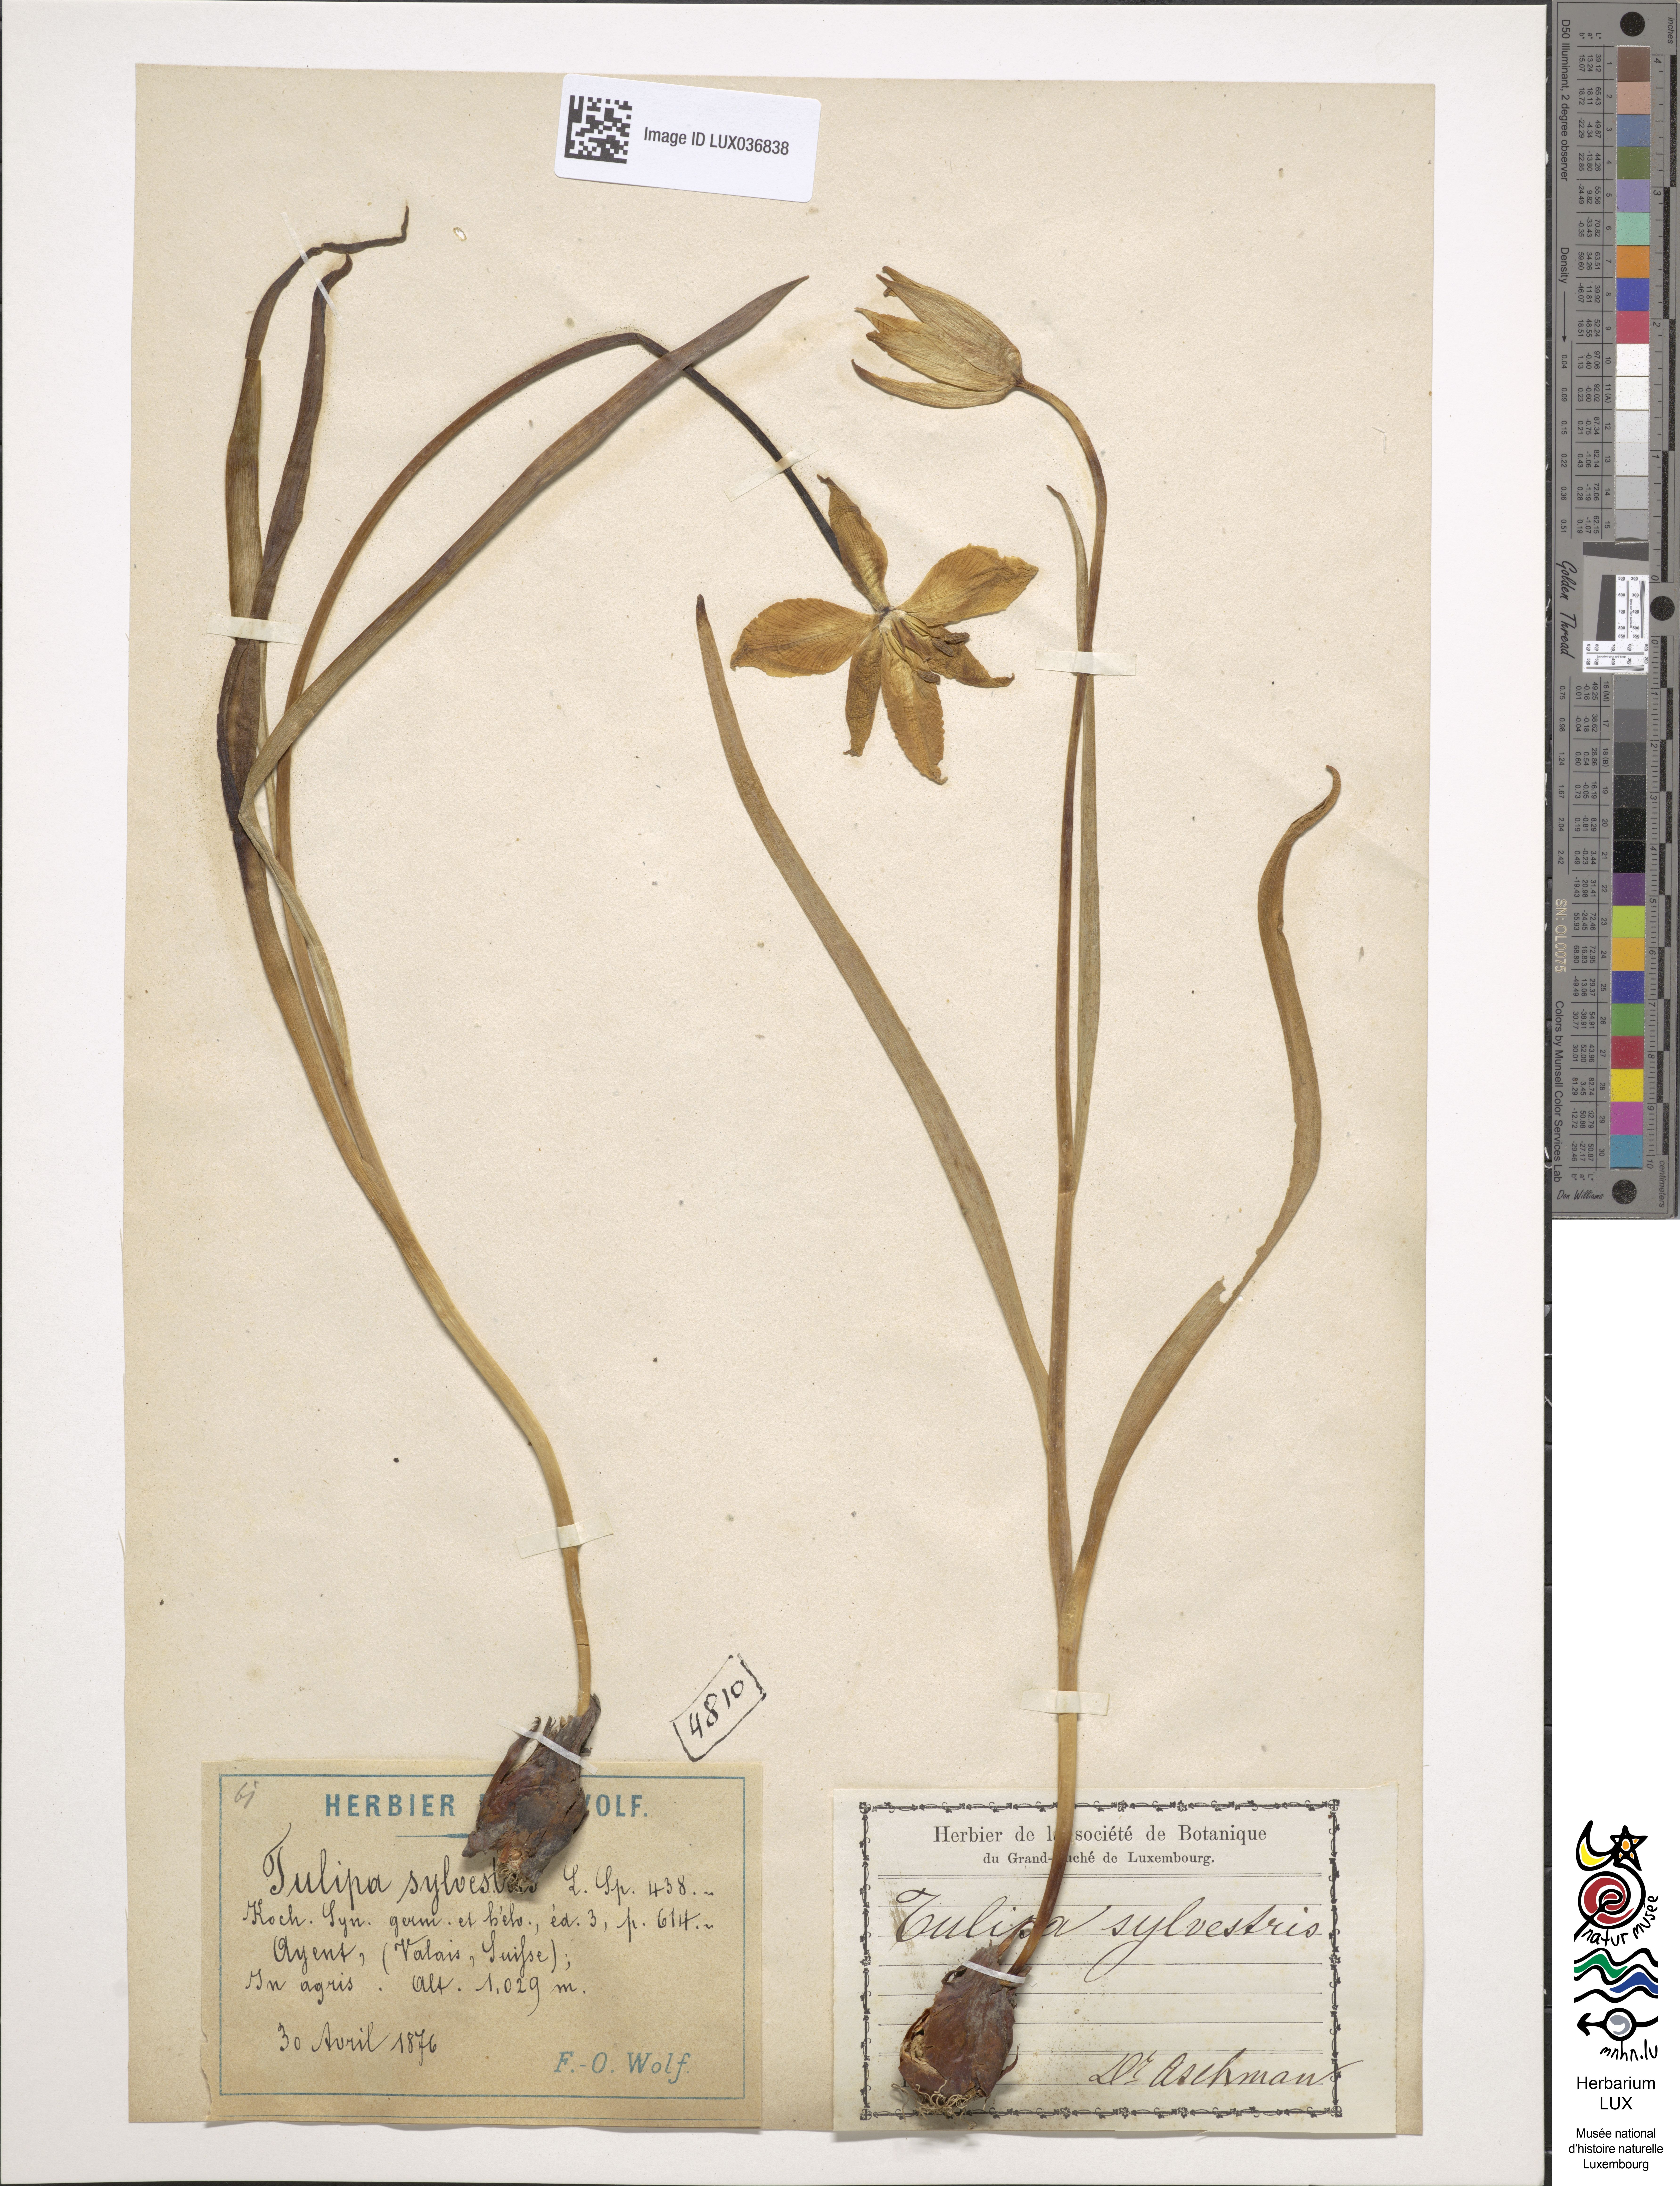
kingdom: Plantae
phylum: Tracheophyta
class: Liliopsida
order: Liliales
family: Liliaceae
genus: Tulipa
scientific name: Tulipa sylvestris
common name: Wild tulip
